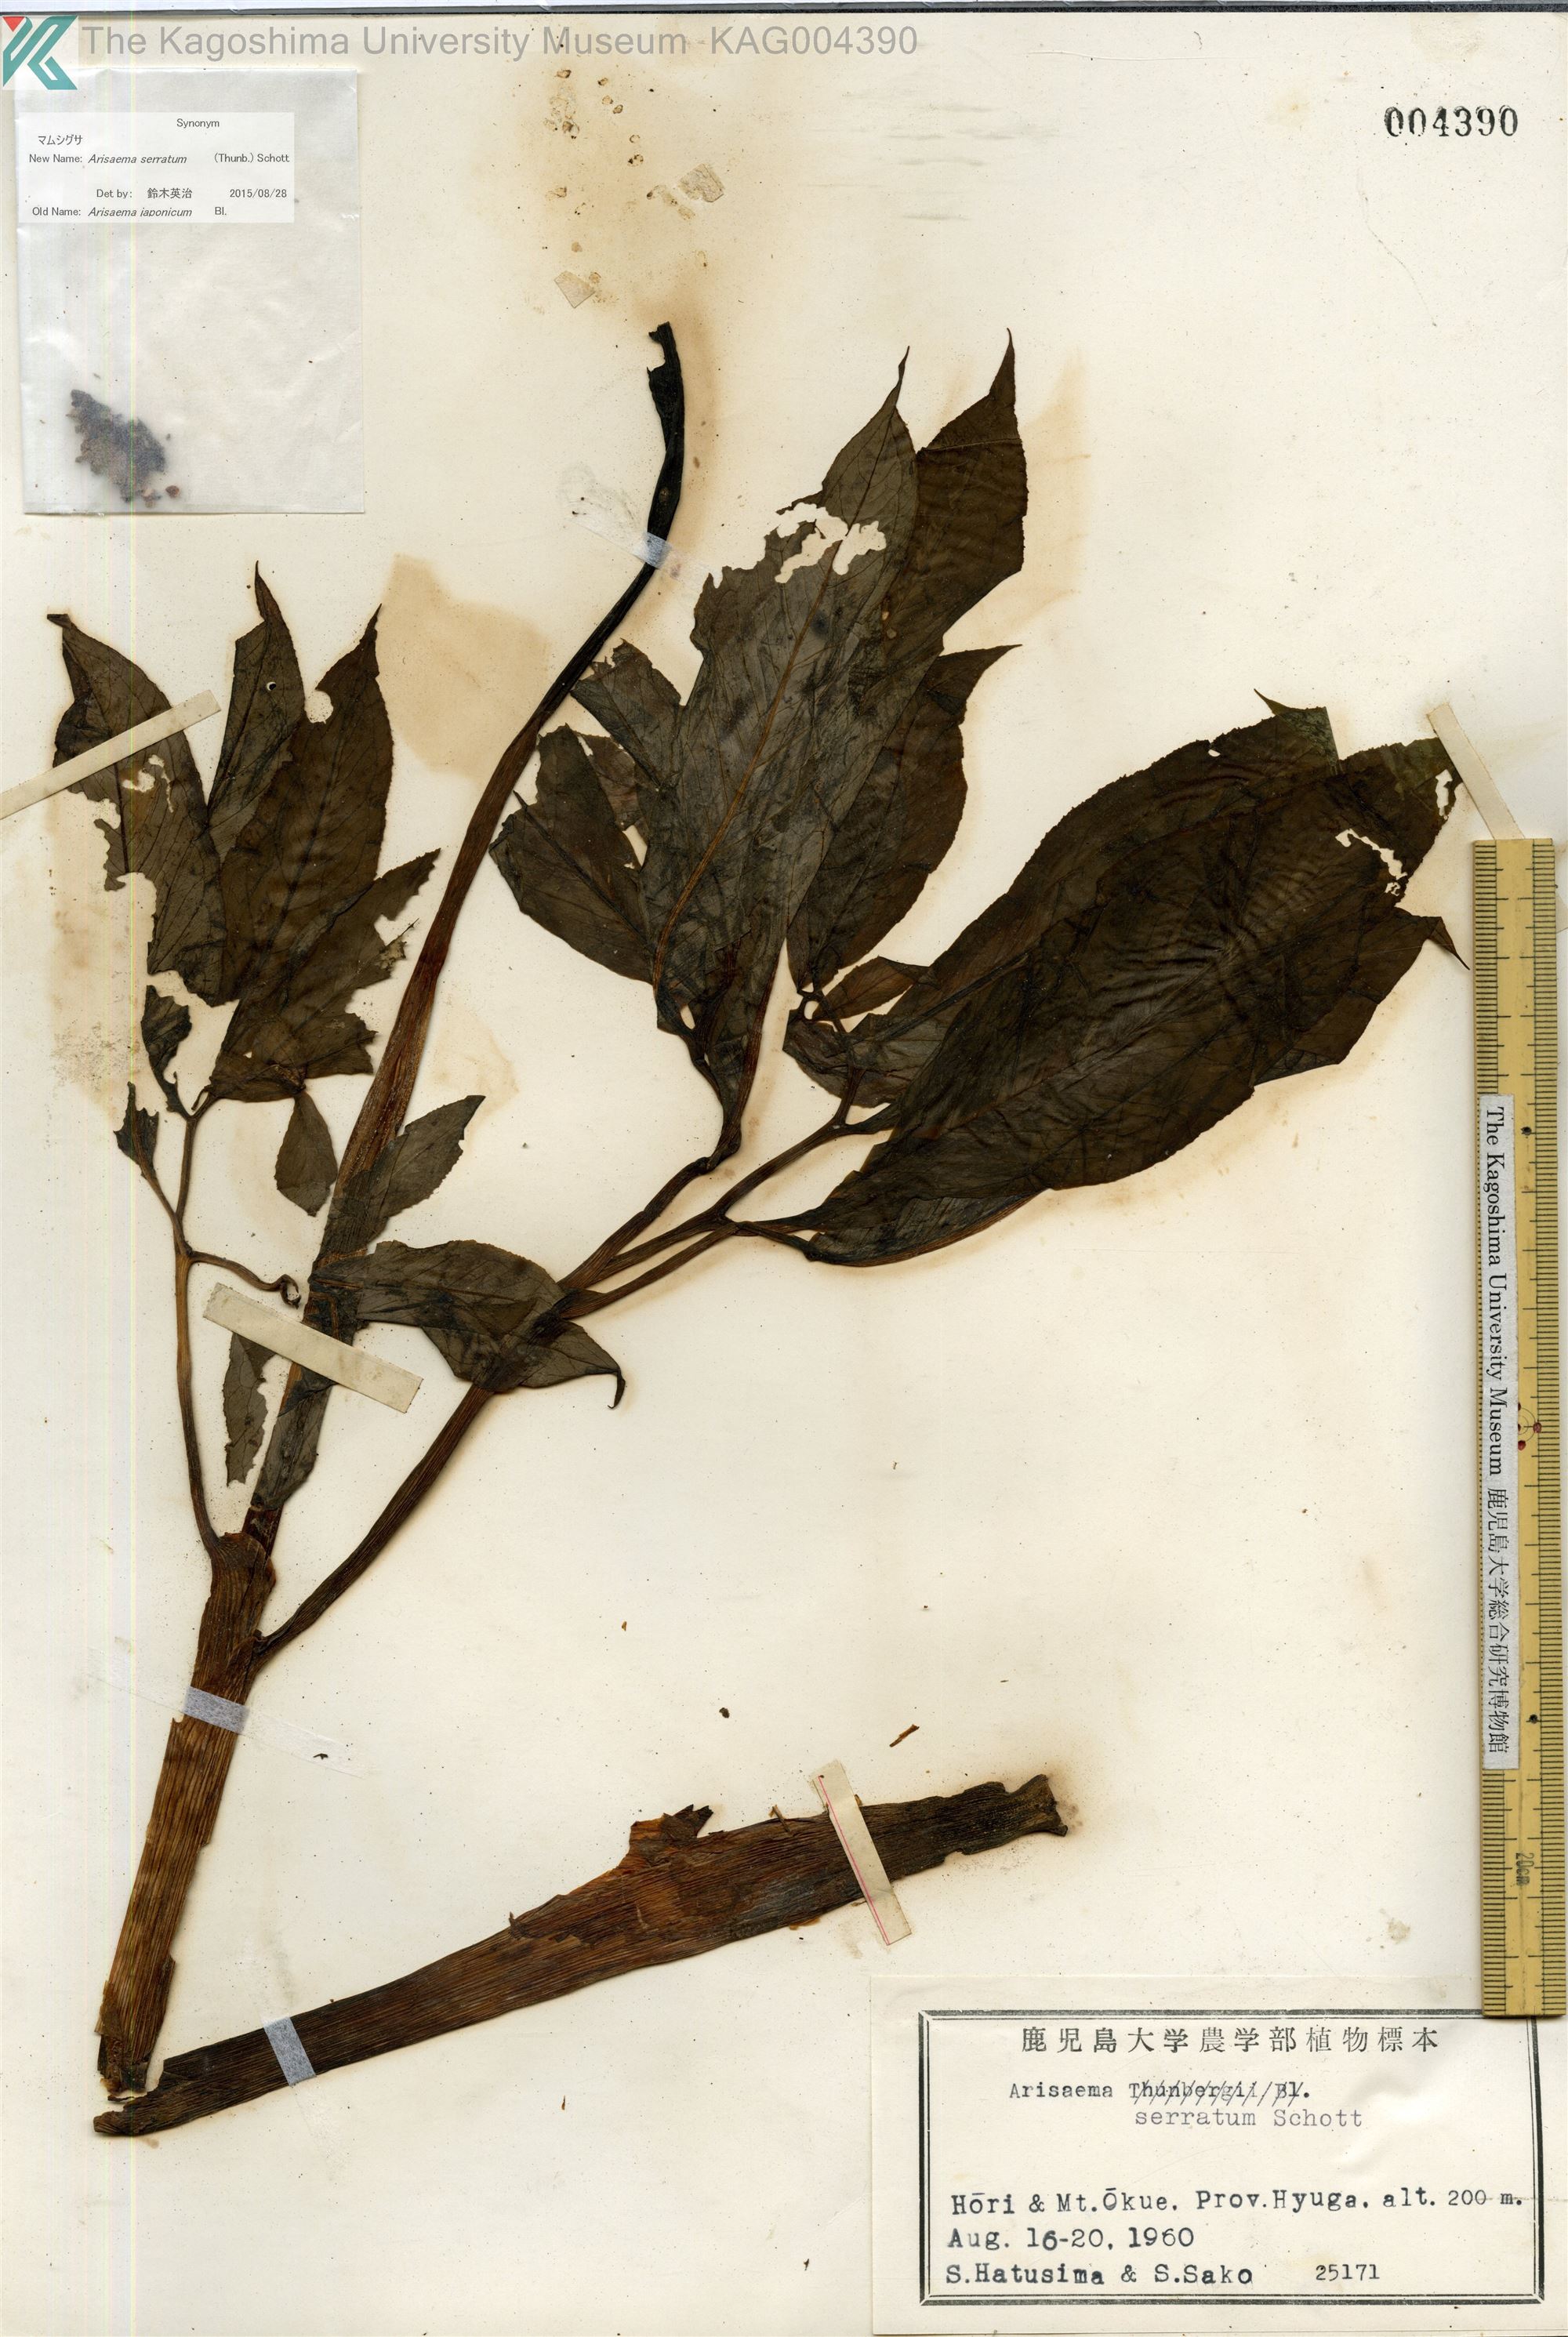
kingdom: Plantae
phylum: Tracheophyta
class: Liliopsida
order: Alismatales
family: Araceae
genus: Arisaema
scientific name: Arisaema serratum
